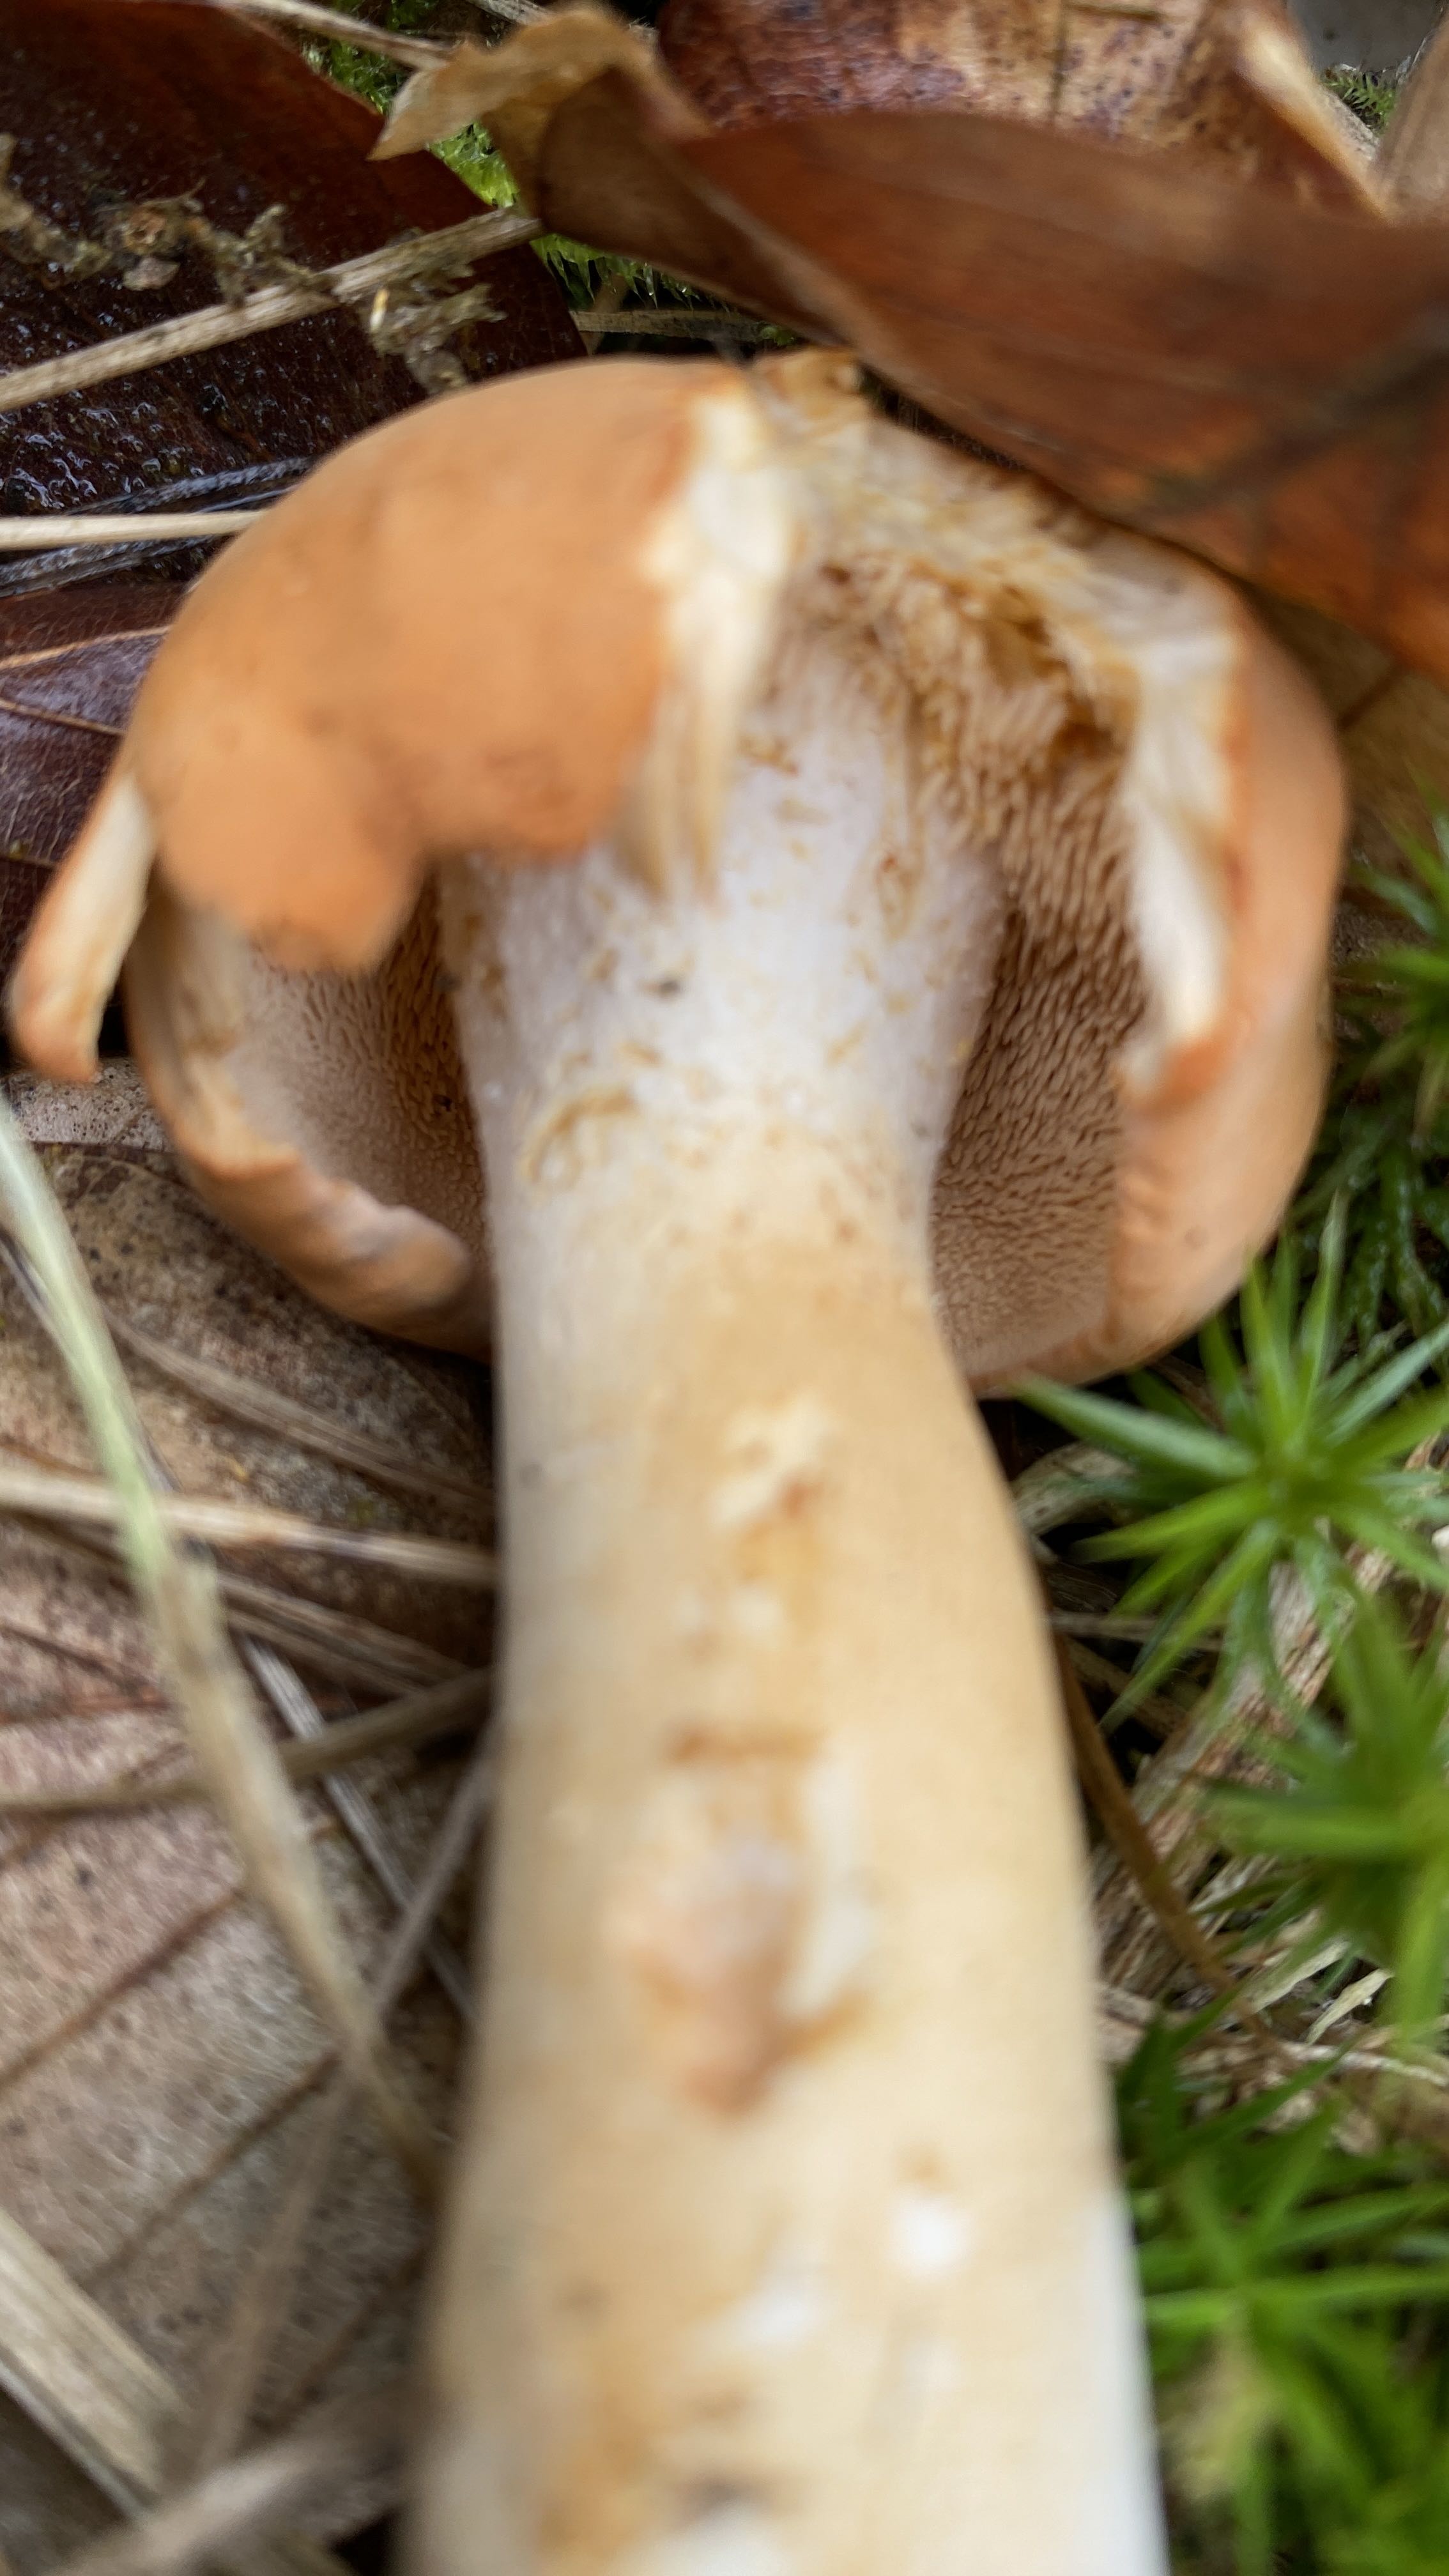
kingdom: Fungi
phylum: Basidiomycota
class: Agaricomycetes
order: Cantharellales
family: Hydnaceae
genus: Hydnum
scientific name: Hydnum
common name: pigsvamp
